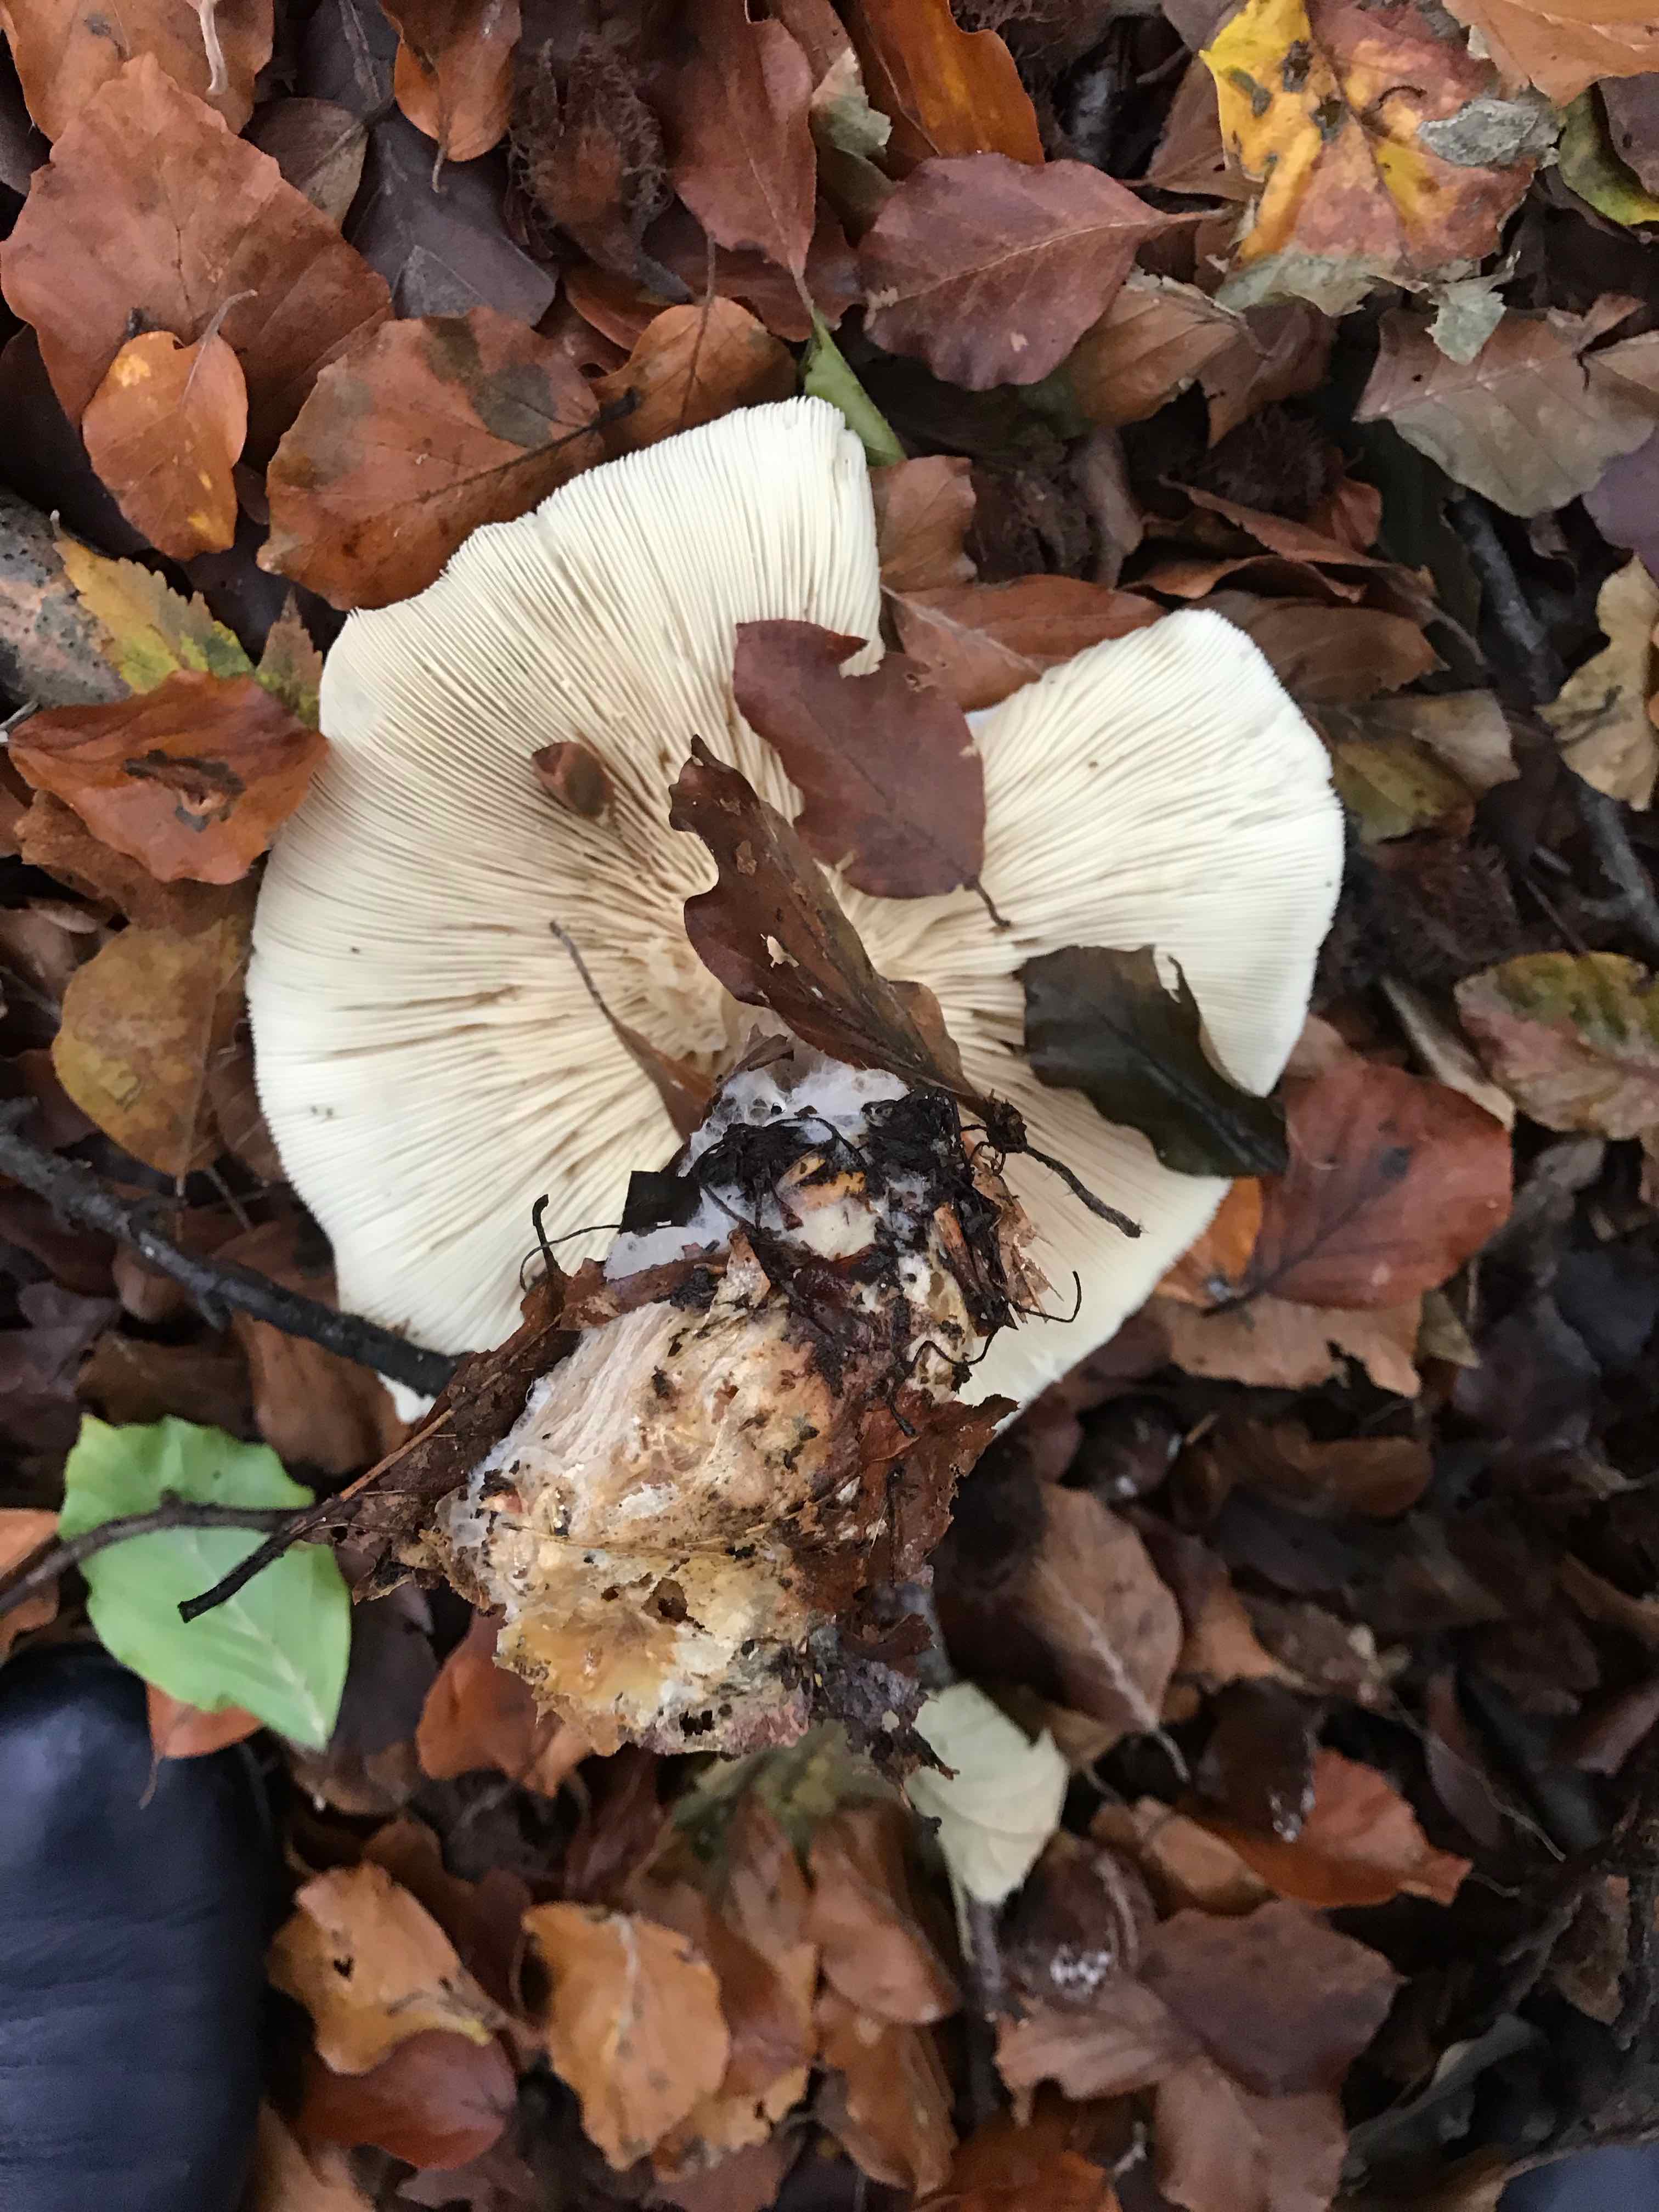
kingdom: Fungi
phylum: Basidiomycota
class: Agaricomycetes
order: Agaricales
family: Tricholomataceae
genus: Clitocybe
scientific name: Clitocybe nebularis
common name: tåge-tragthat
